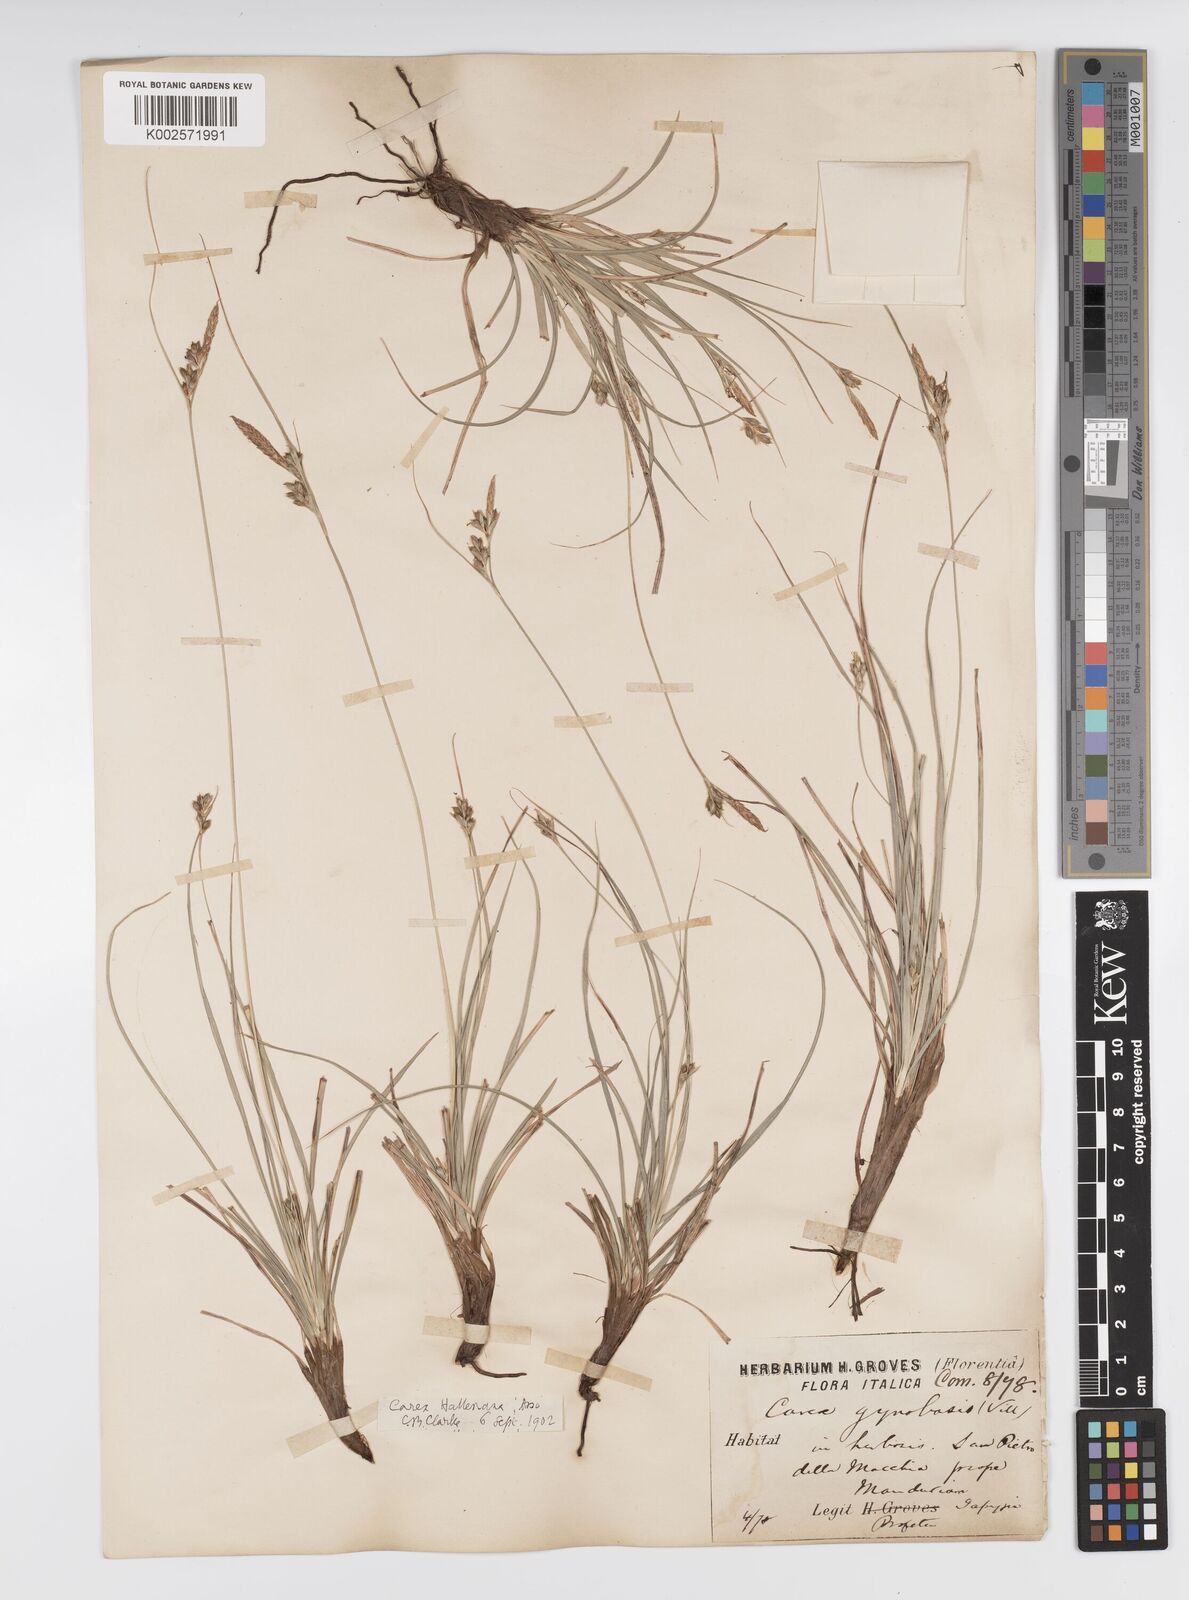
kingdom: Plantae
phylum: Tracheophyta
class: Liliopsida
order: Poales
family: Cyperaceae
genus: Carex
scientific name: Carex halleriana
